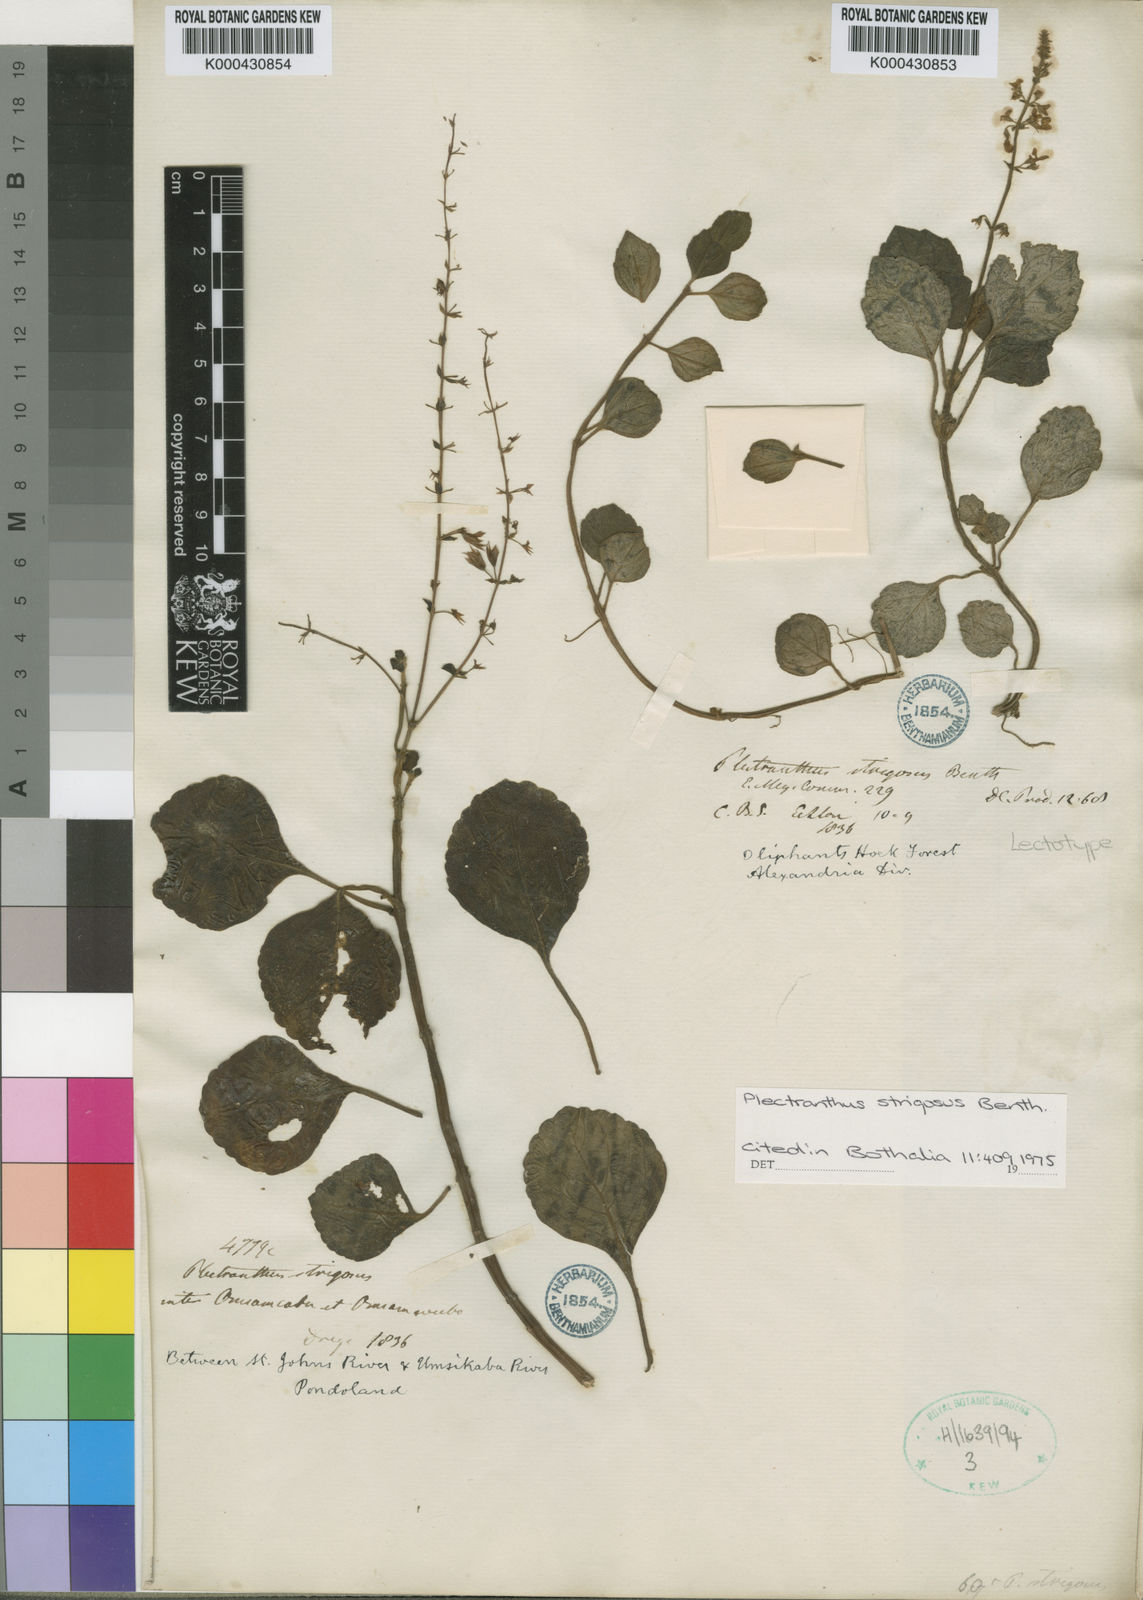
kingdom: Plantae
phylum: Tracheophyta
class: Magnoliopsida
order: Lamiales
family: Lamiaceae
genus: Plectranthus
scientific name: Plectranthus
